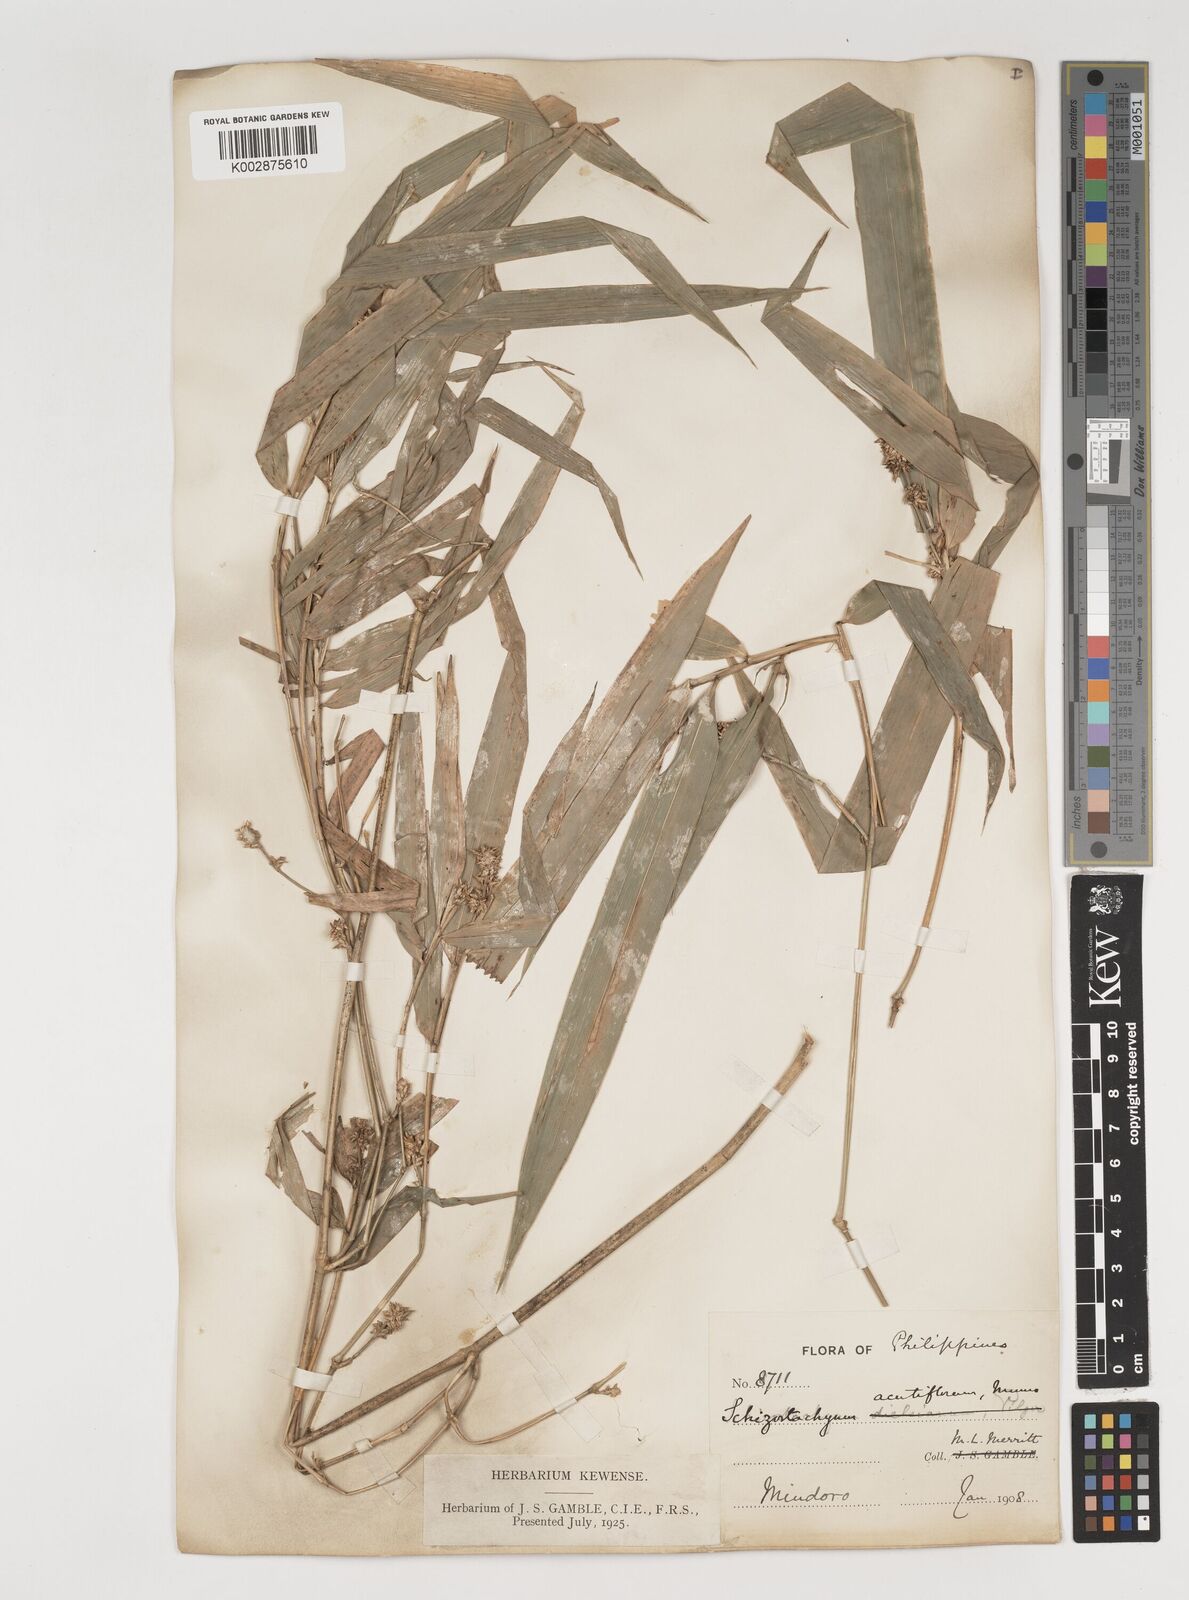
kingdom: Plantae
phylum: Tracheophyta
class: Liliopsida
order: Poales
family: Poaceae
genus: Dinochloa
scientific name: Dinochloa acutiflora
